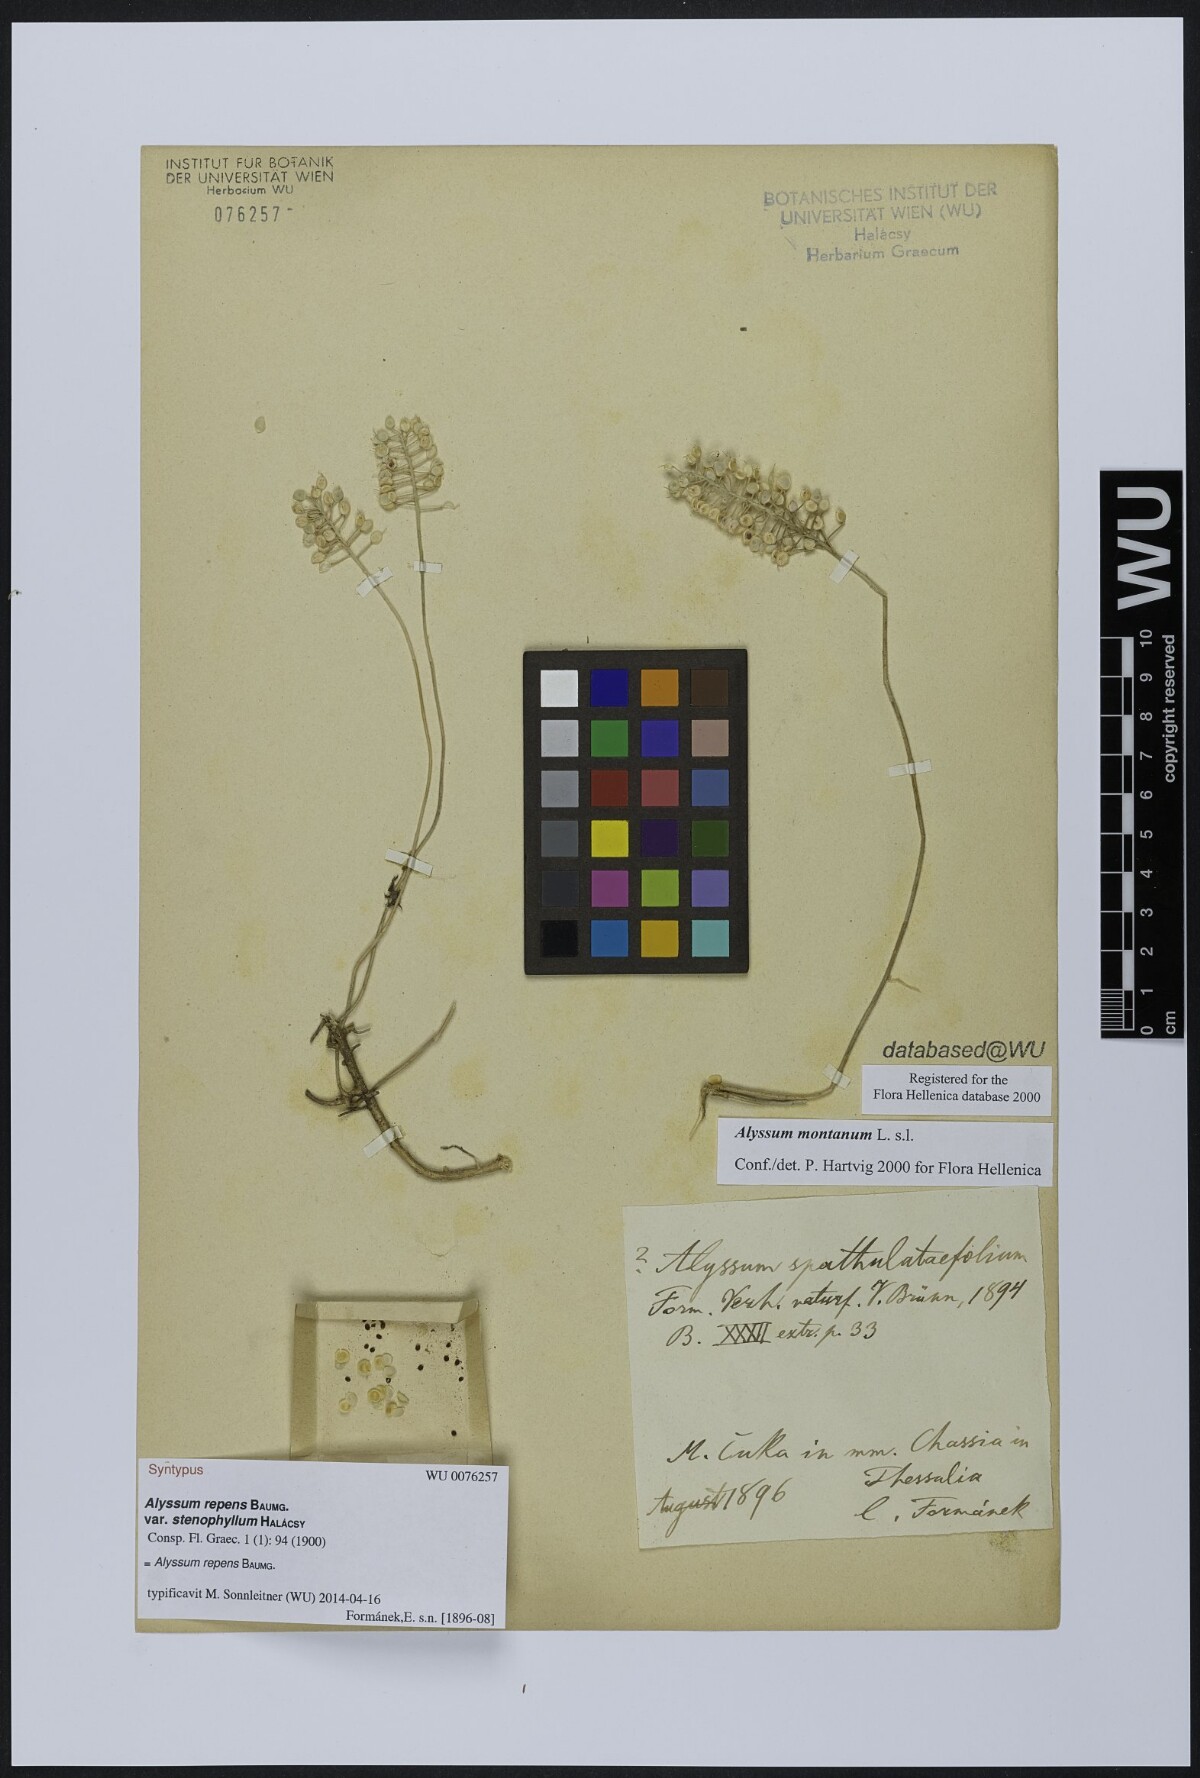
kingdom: Plantae
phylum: Tracheophyta
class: Magnoliopsida
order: Brassicales
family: Brassicaceae
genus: Alyssum
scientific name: Alyssum trichostachyum
